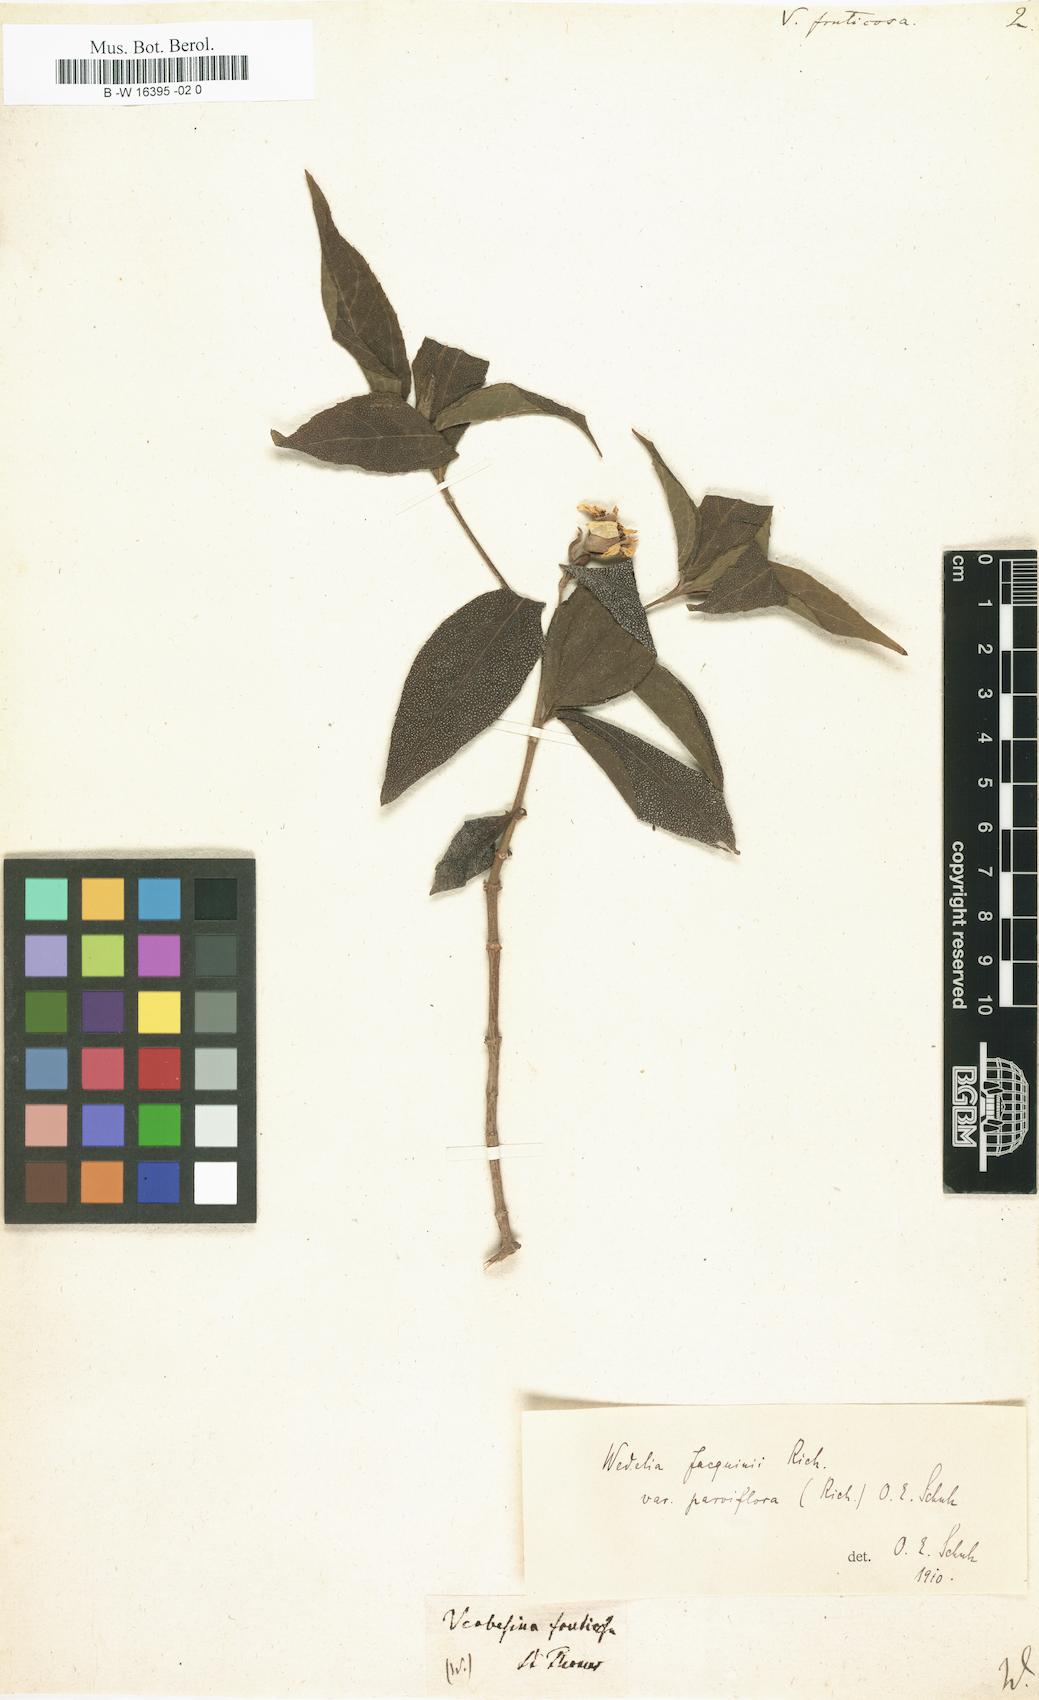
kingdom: Plantae
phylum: Tracheophyta
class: Magnoliopsida
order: Asterales
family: Asteraceae
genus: Verbesina
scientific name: Verbesina fruticosa
